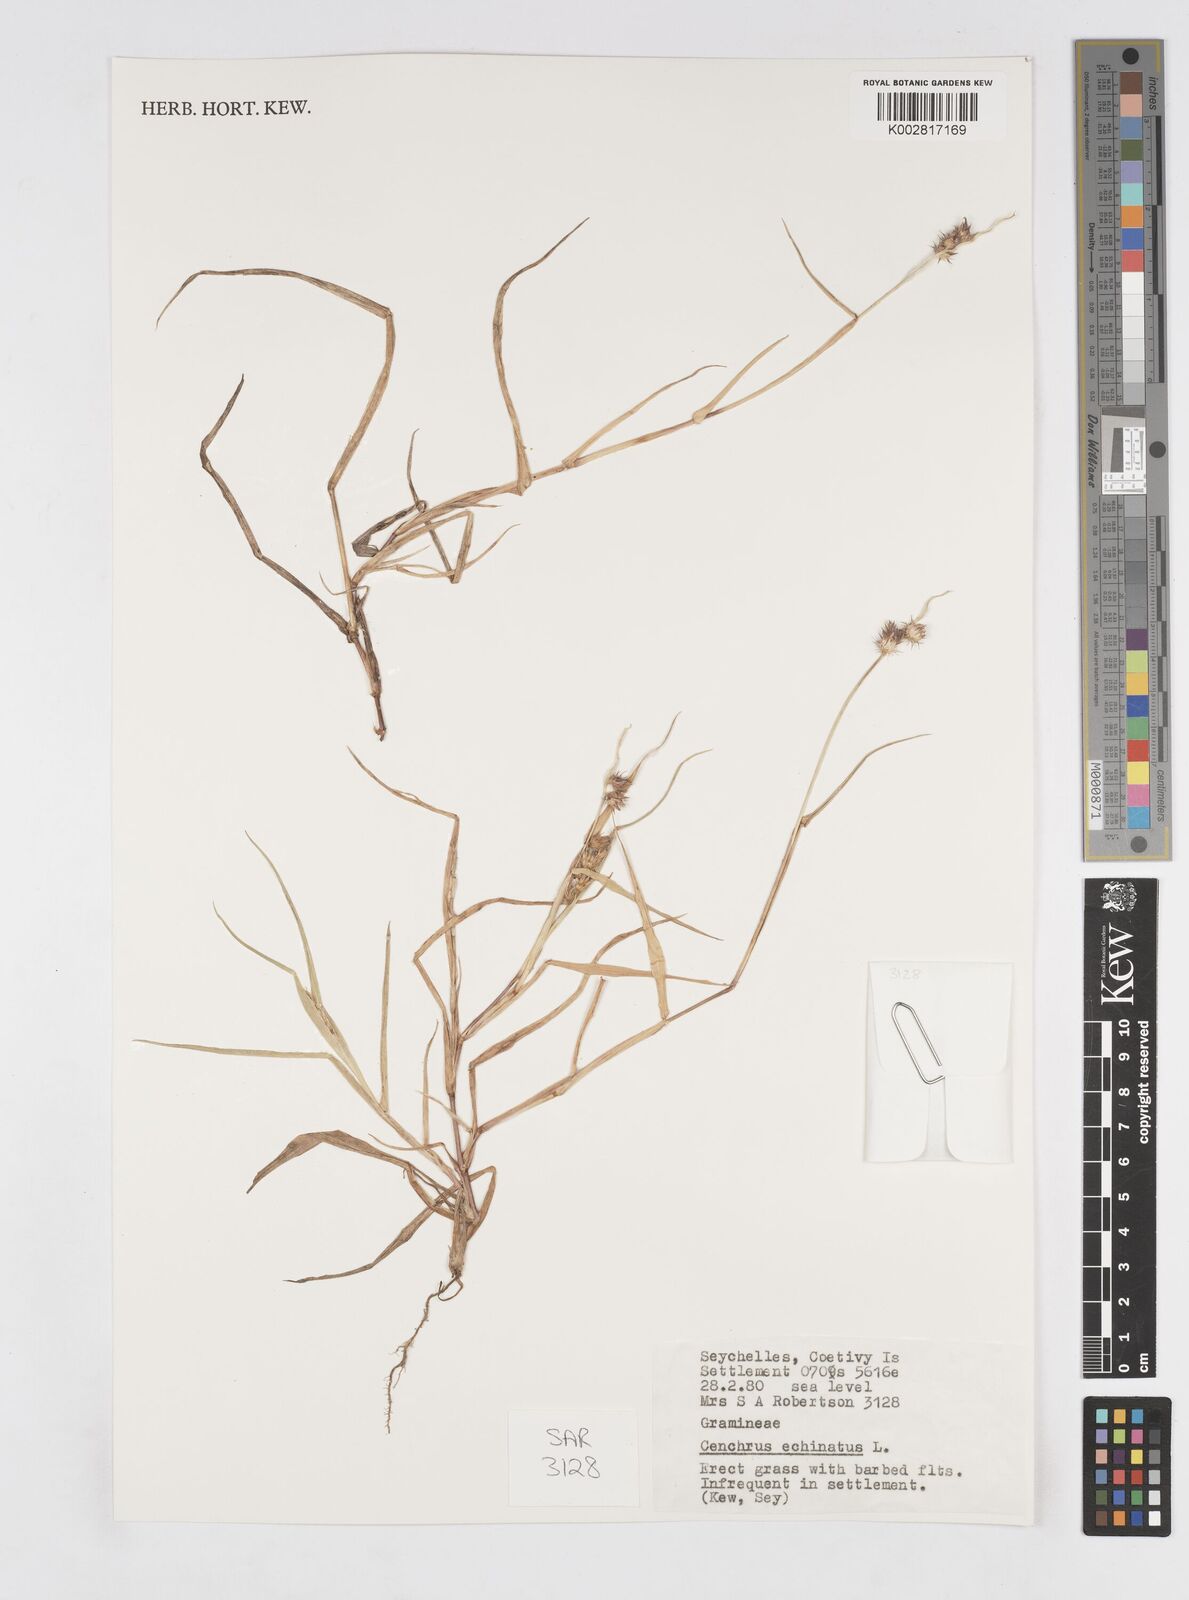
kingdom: Plantae
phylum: Tracheophyta
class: Liliopsida
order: Poales
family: Poaceae
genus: Cenchrus
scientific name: Cenchrus echinatus
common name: Southern sandbur
